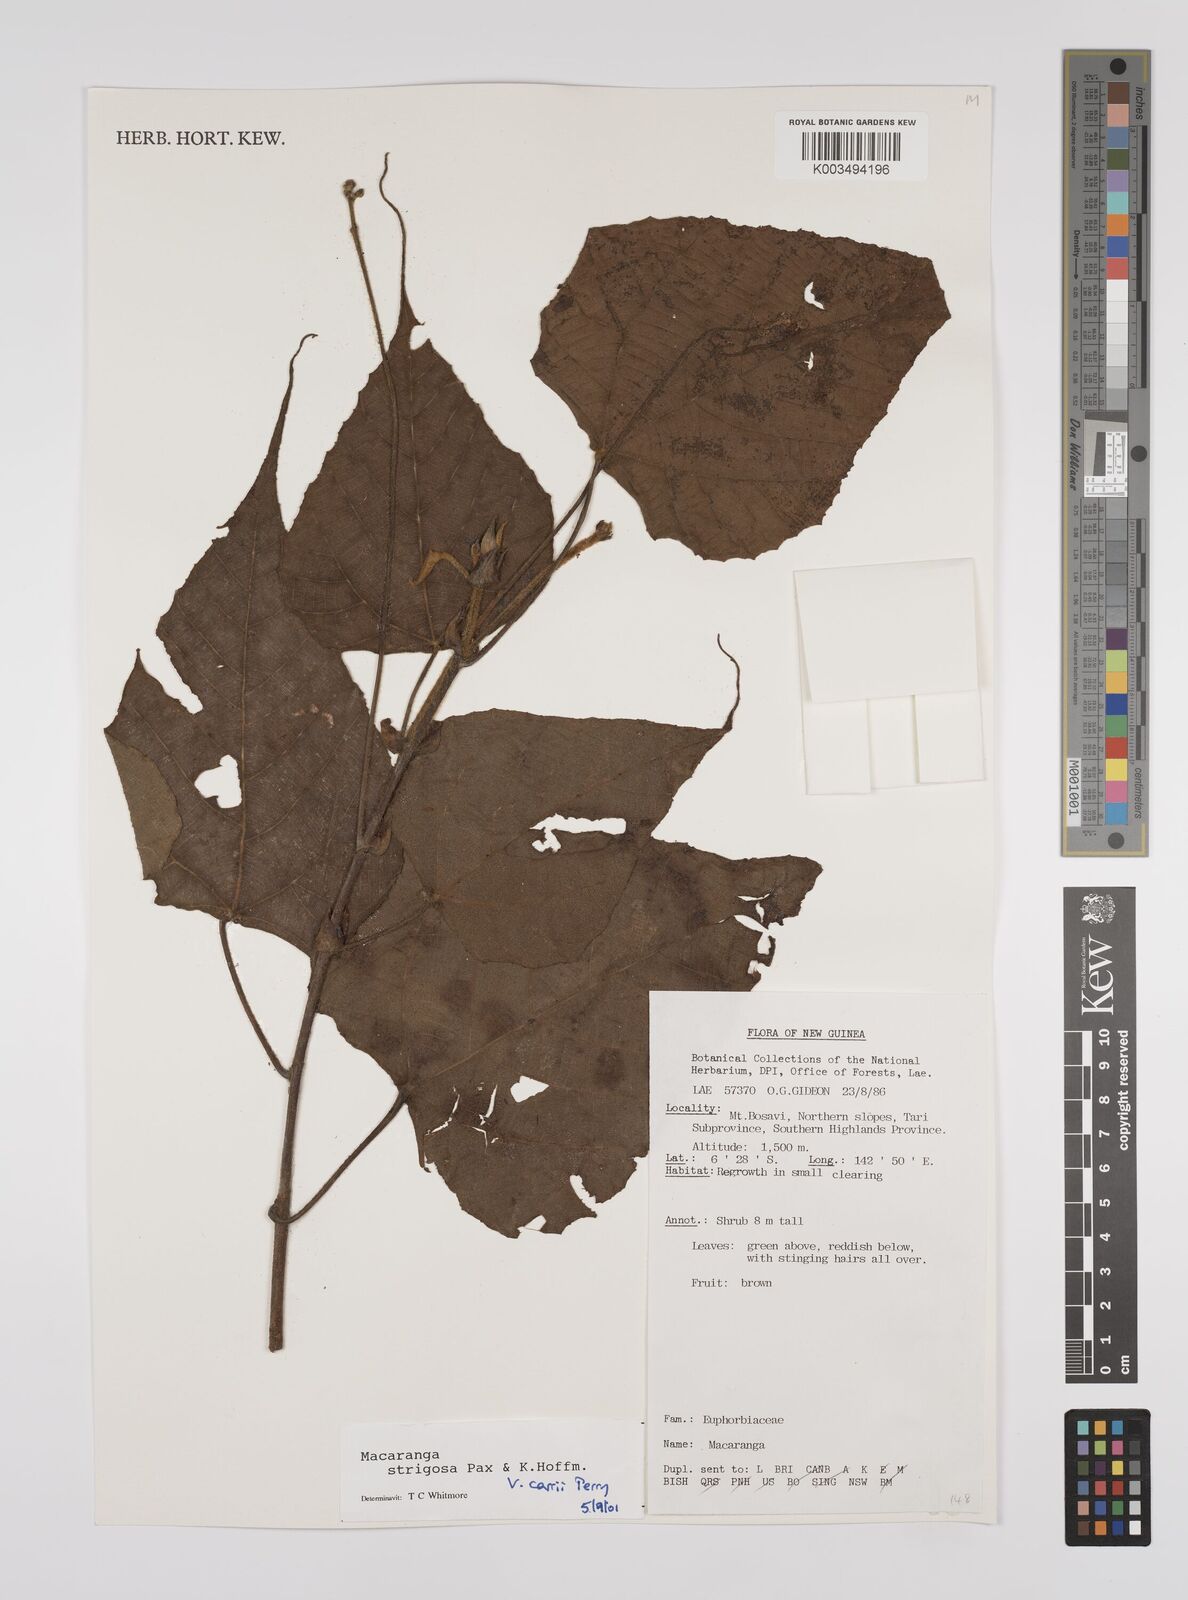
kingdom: Plantae
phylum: Tracheophyta
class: Magnoliopsida
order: Malpighiales
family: Euphorbiaceae
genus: Macaranga
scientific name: Macaranga strigosa
